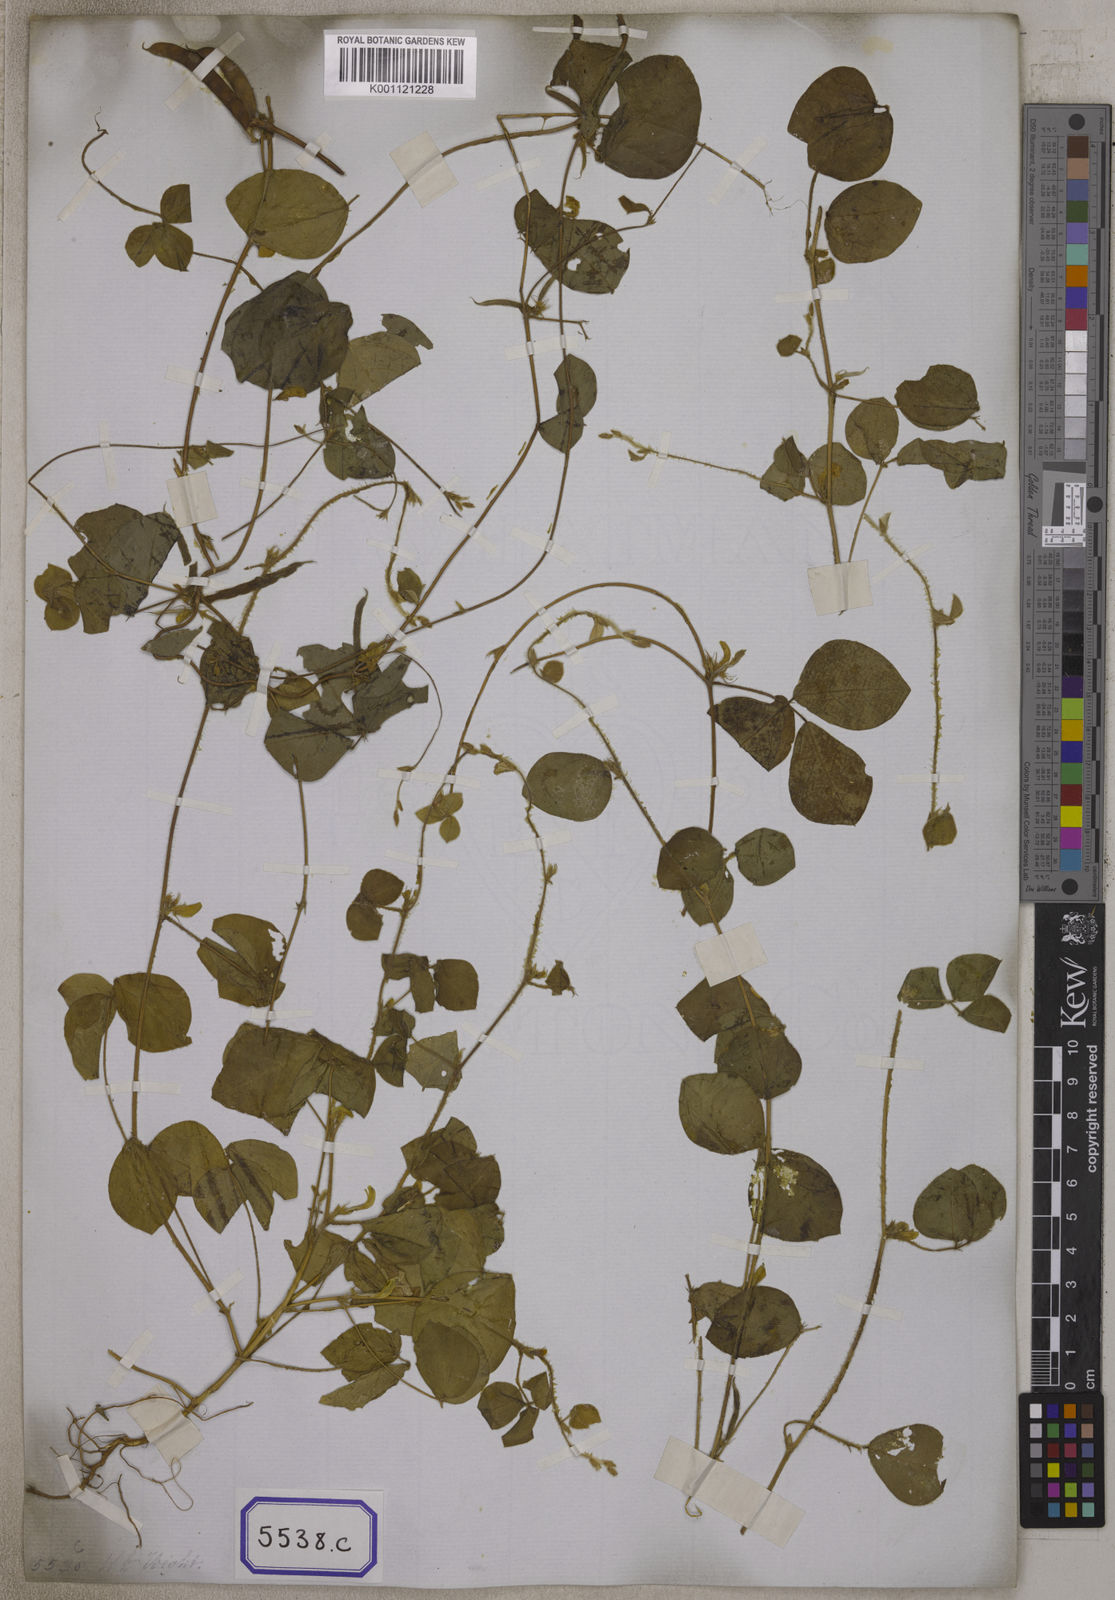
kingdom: Plantae
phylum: Tracheophyta
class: Magnoliopsida
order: Fabales
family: Fabaceae
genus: Macrotyloma
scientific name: Macrotyloma uniflorum
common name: Horse gram
